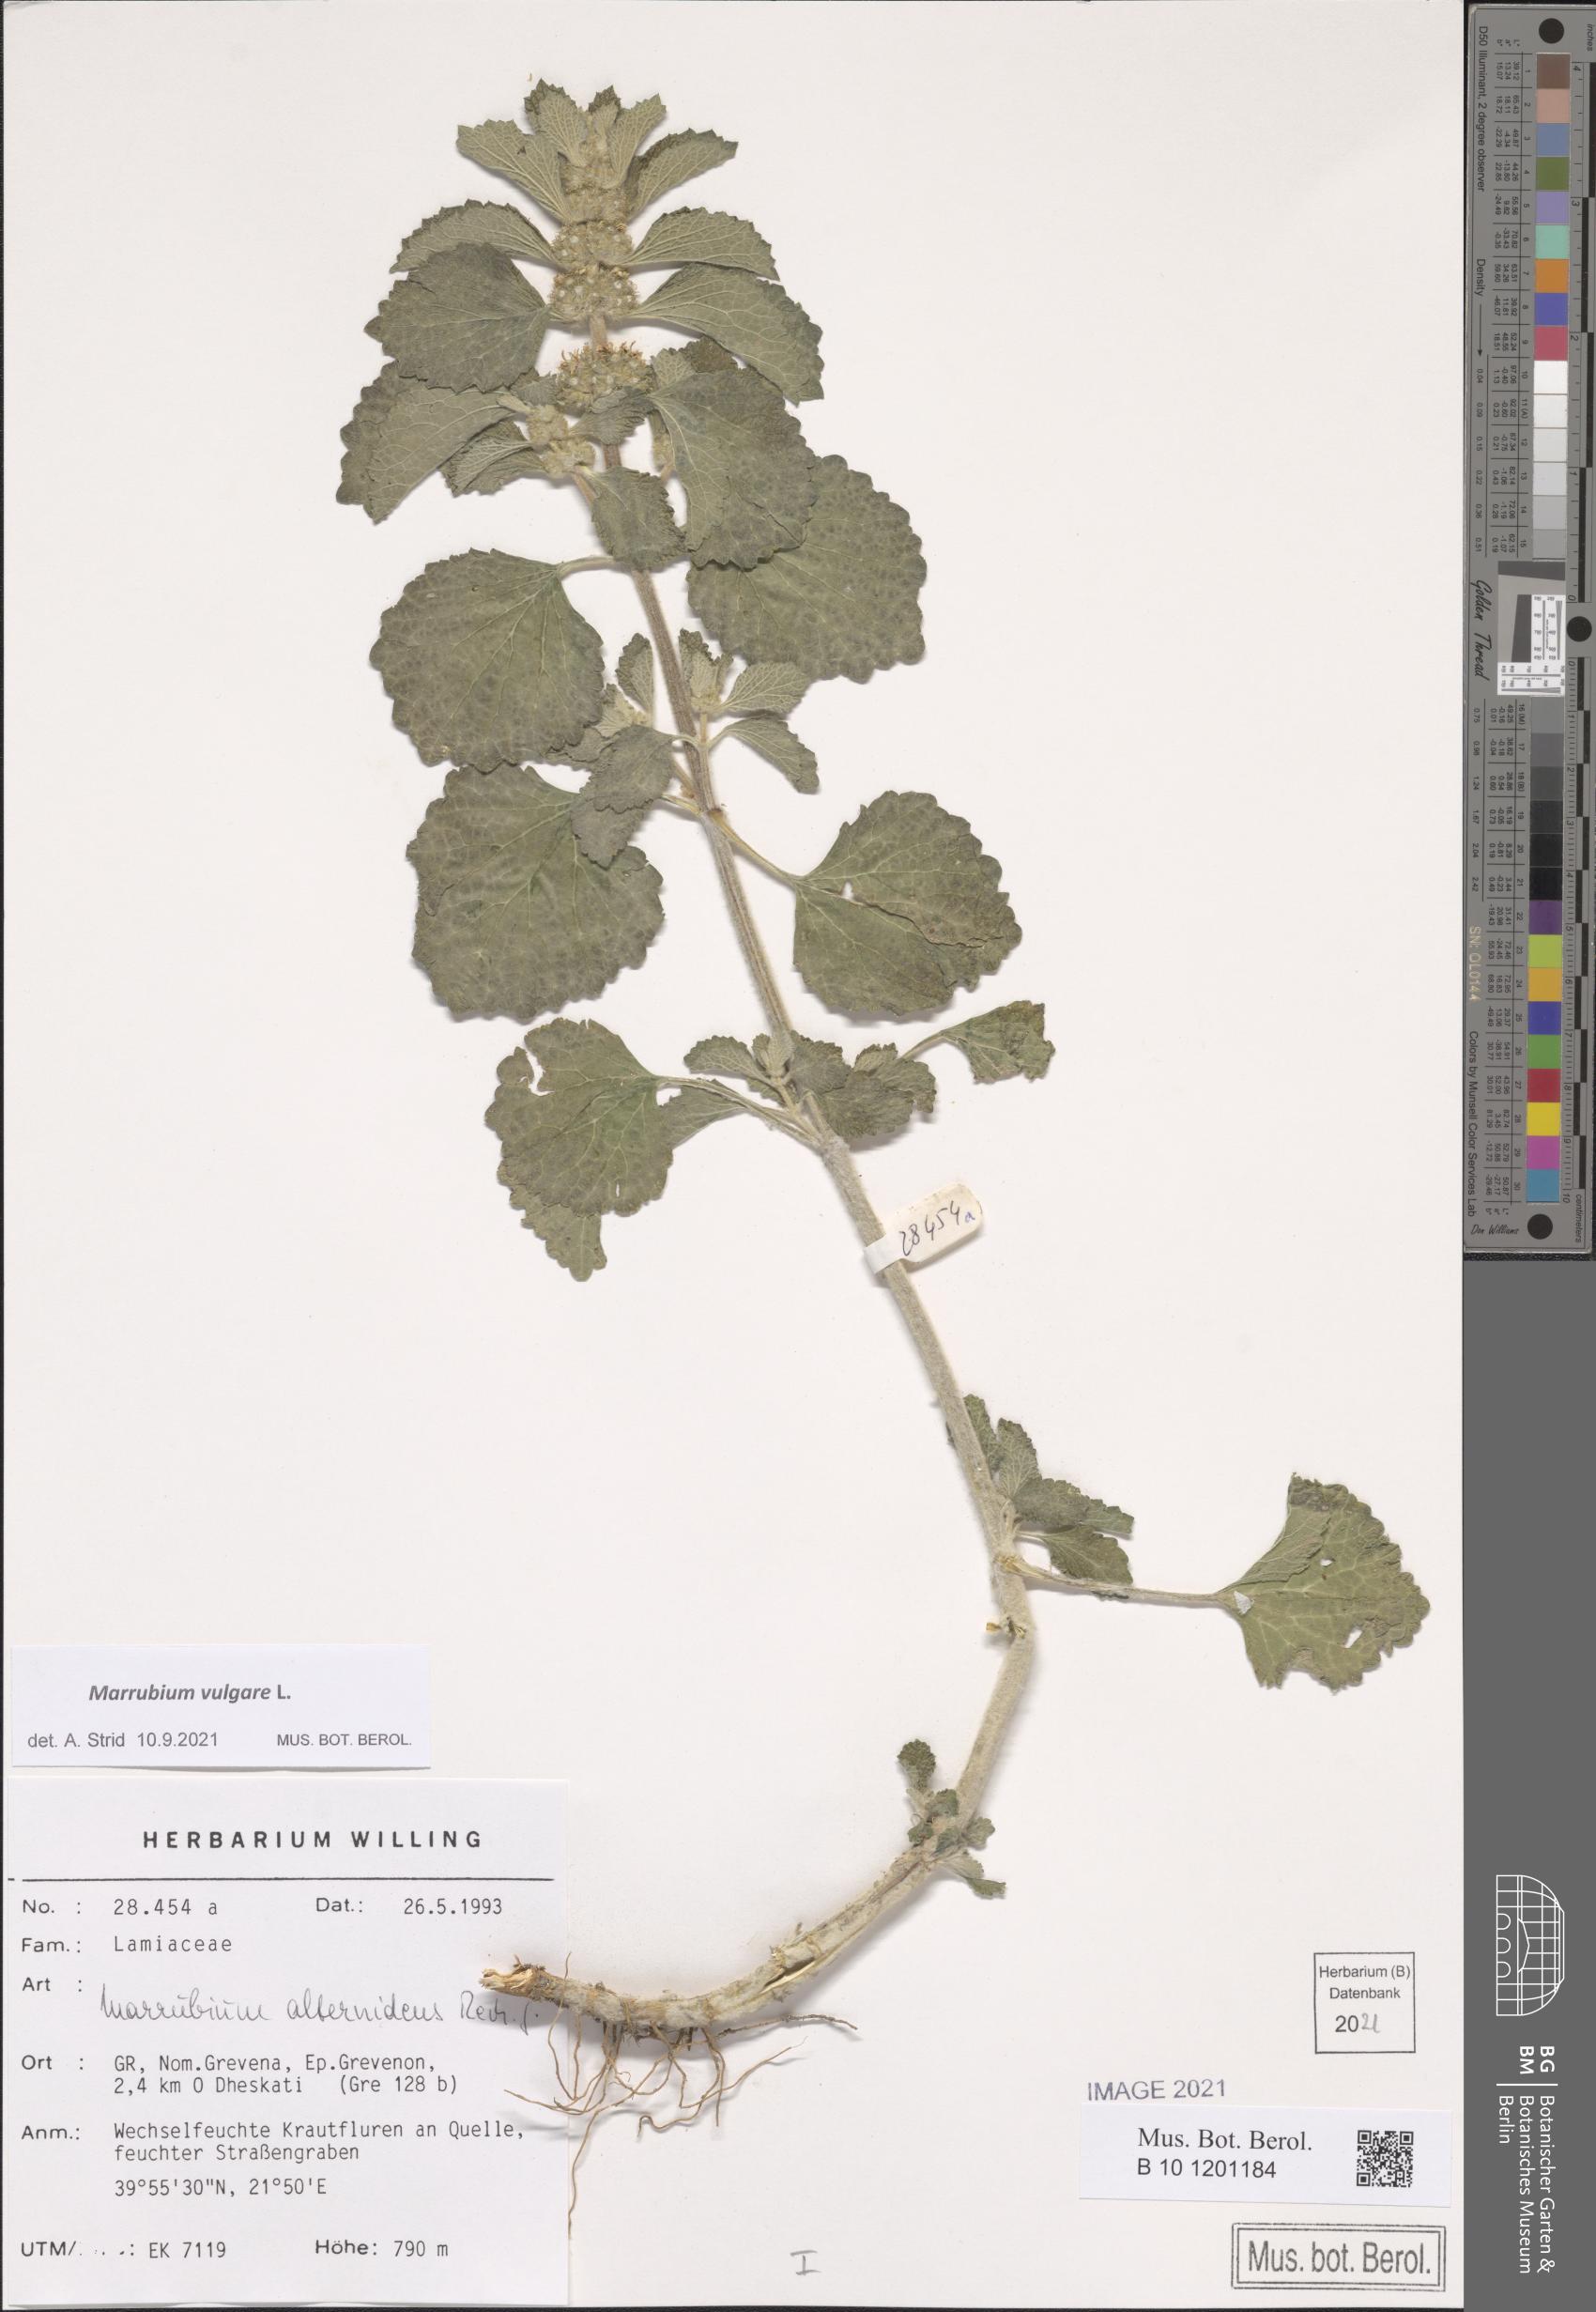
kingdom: Plantae
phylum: Tracheophyta
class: Magnoliopsida
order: Lamiales
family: Lamiaceae
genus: Marrubium
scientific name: Marrubium vulgare
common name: Horehound
